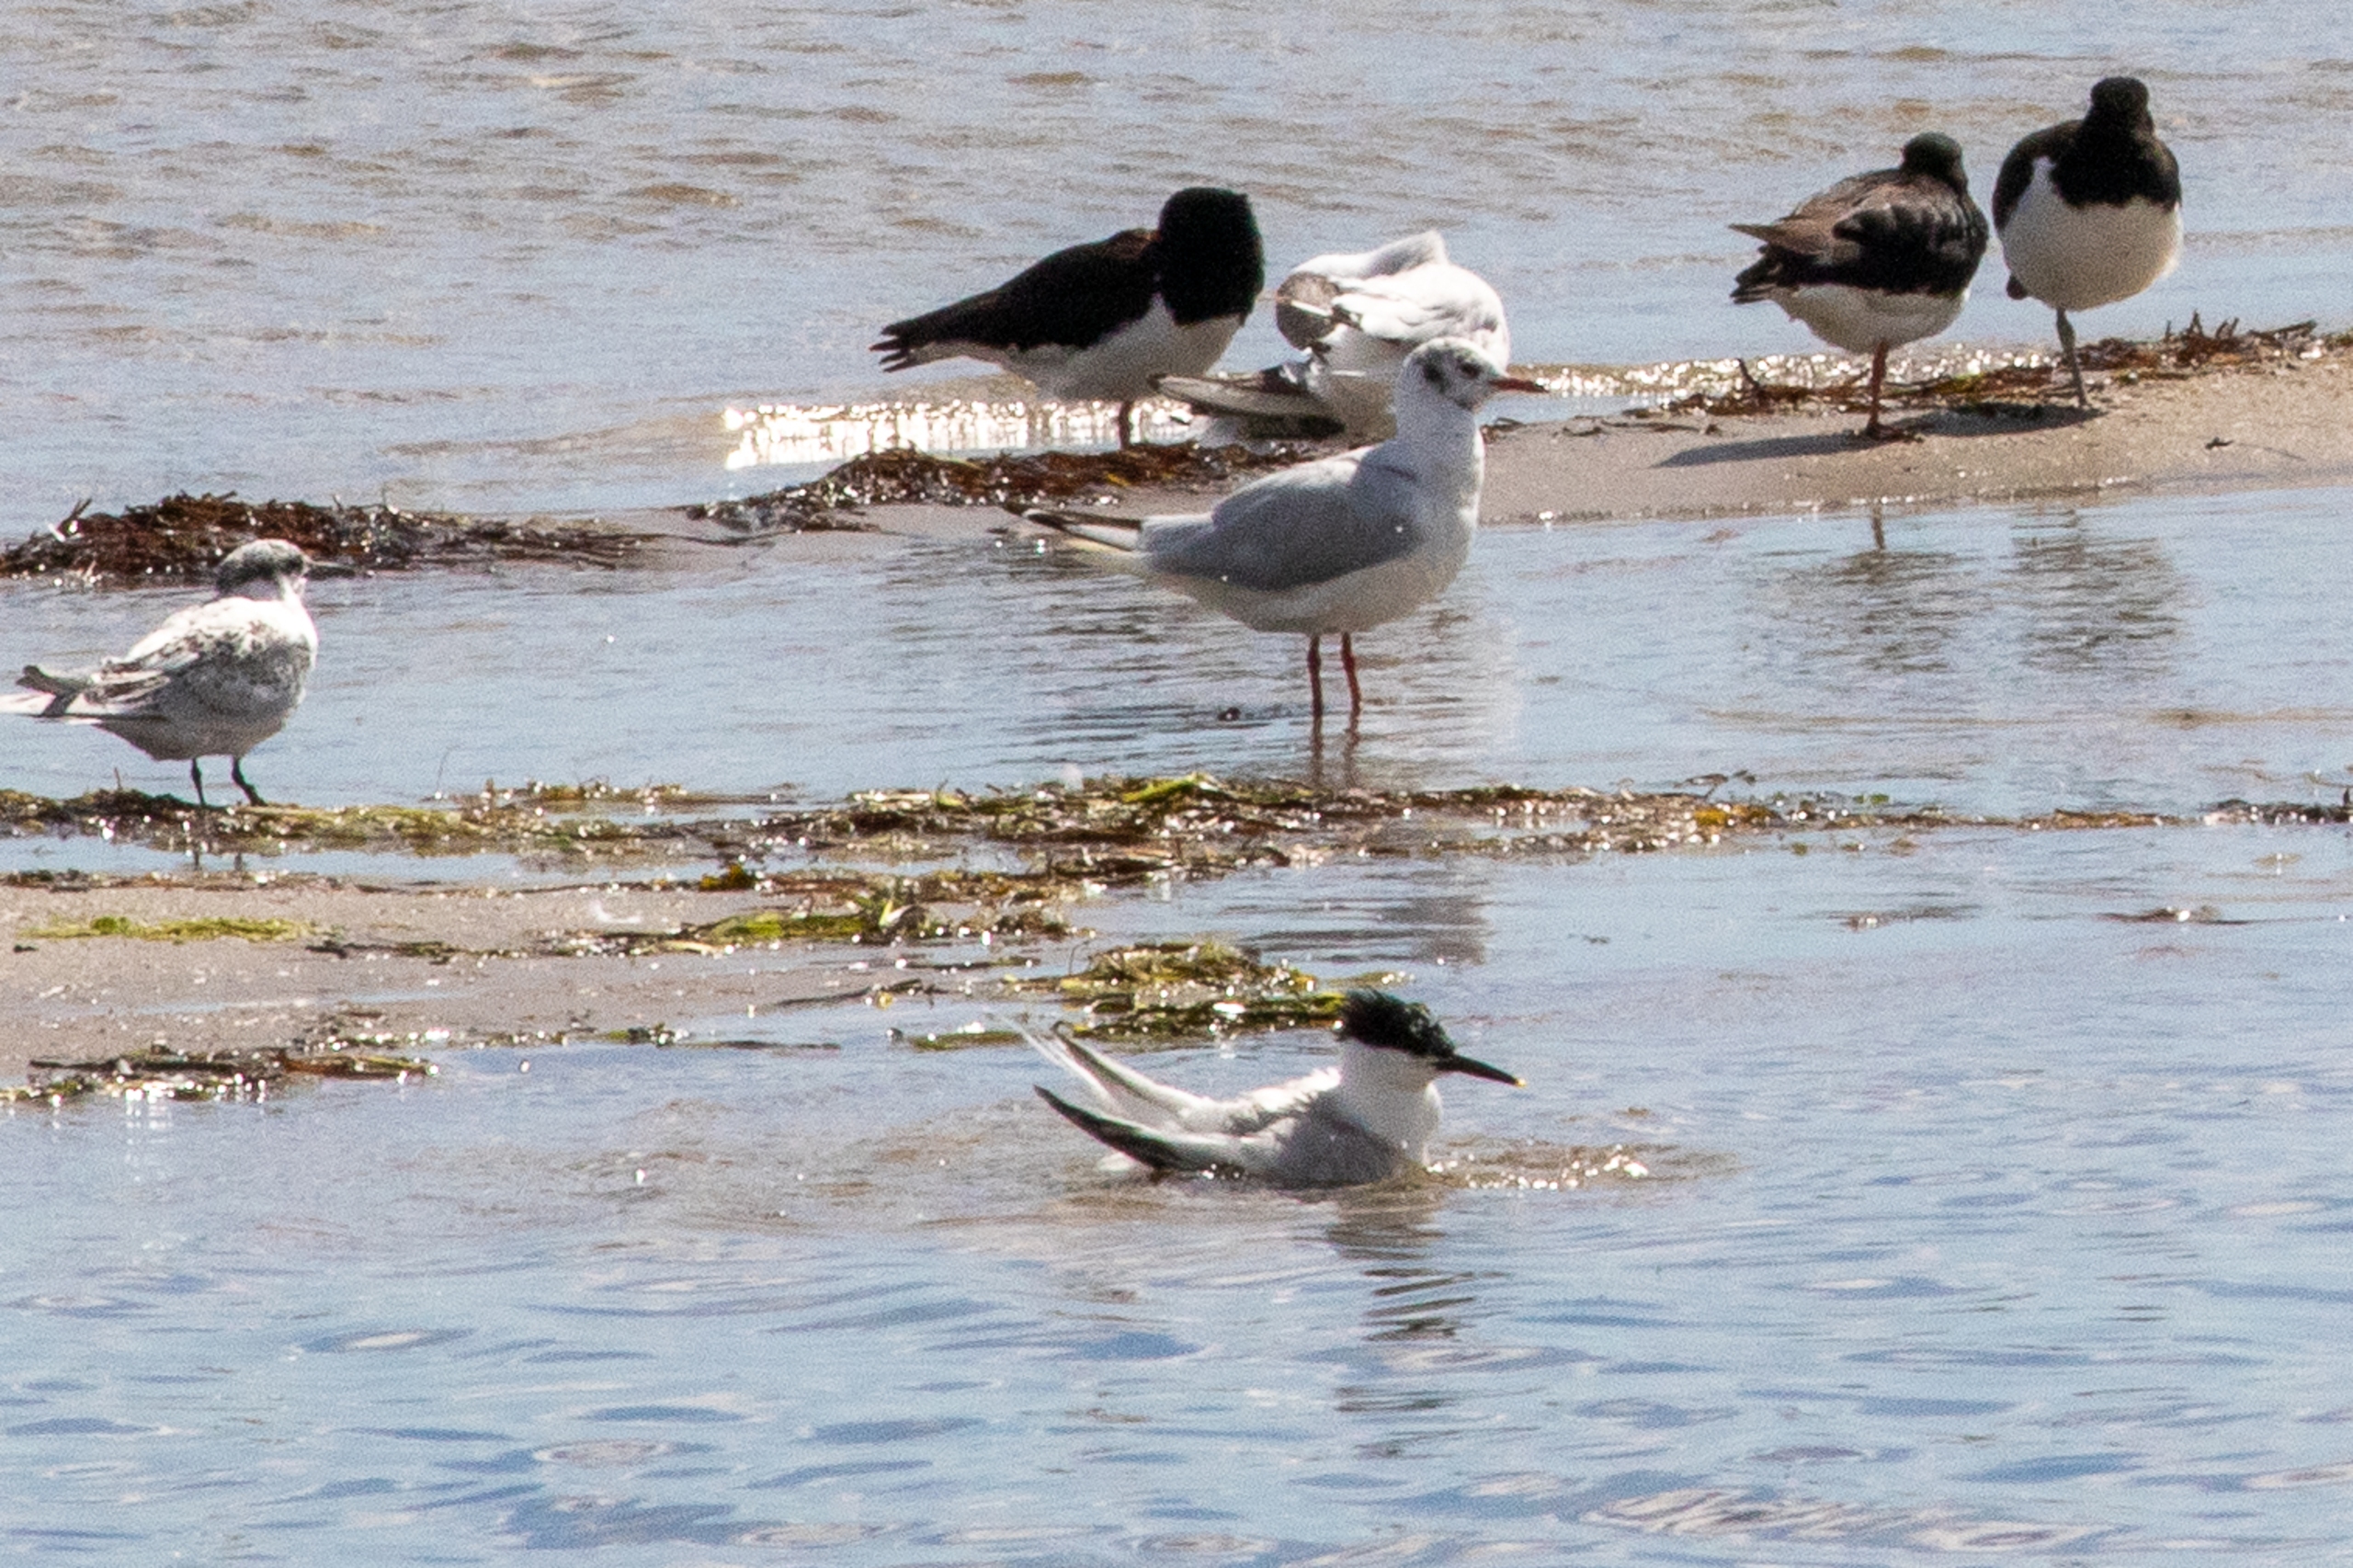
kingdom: Animalia
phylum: Chordata
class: Aves
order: Charadriiformes
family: Laridae
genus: Thalasseus
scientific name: Thalasseus sandvicensis
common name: Splitterne
